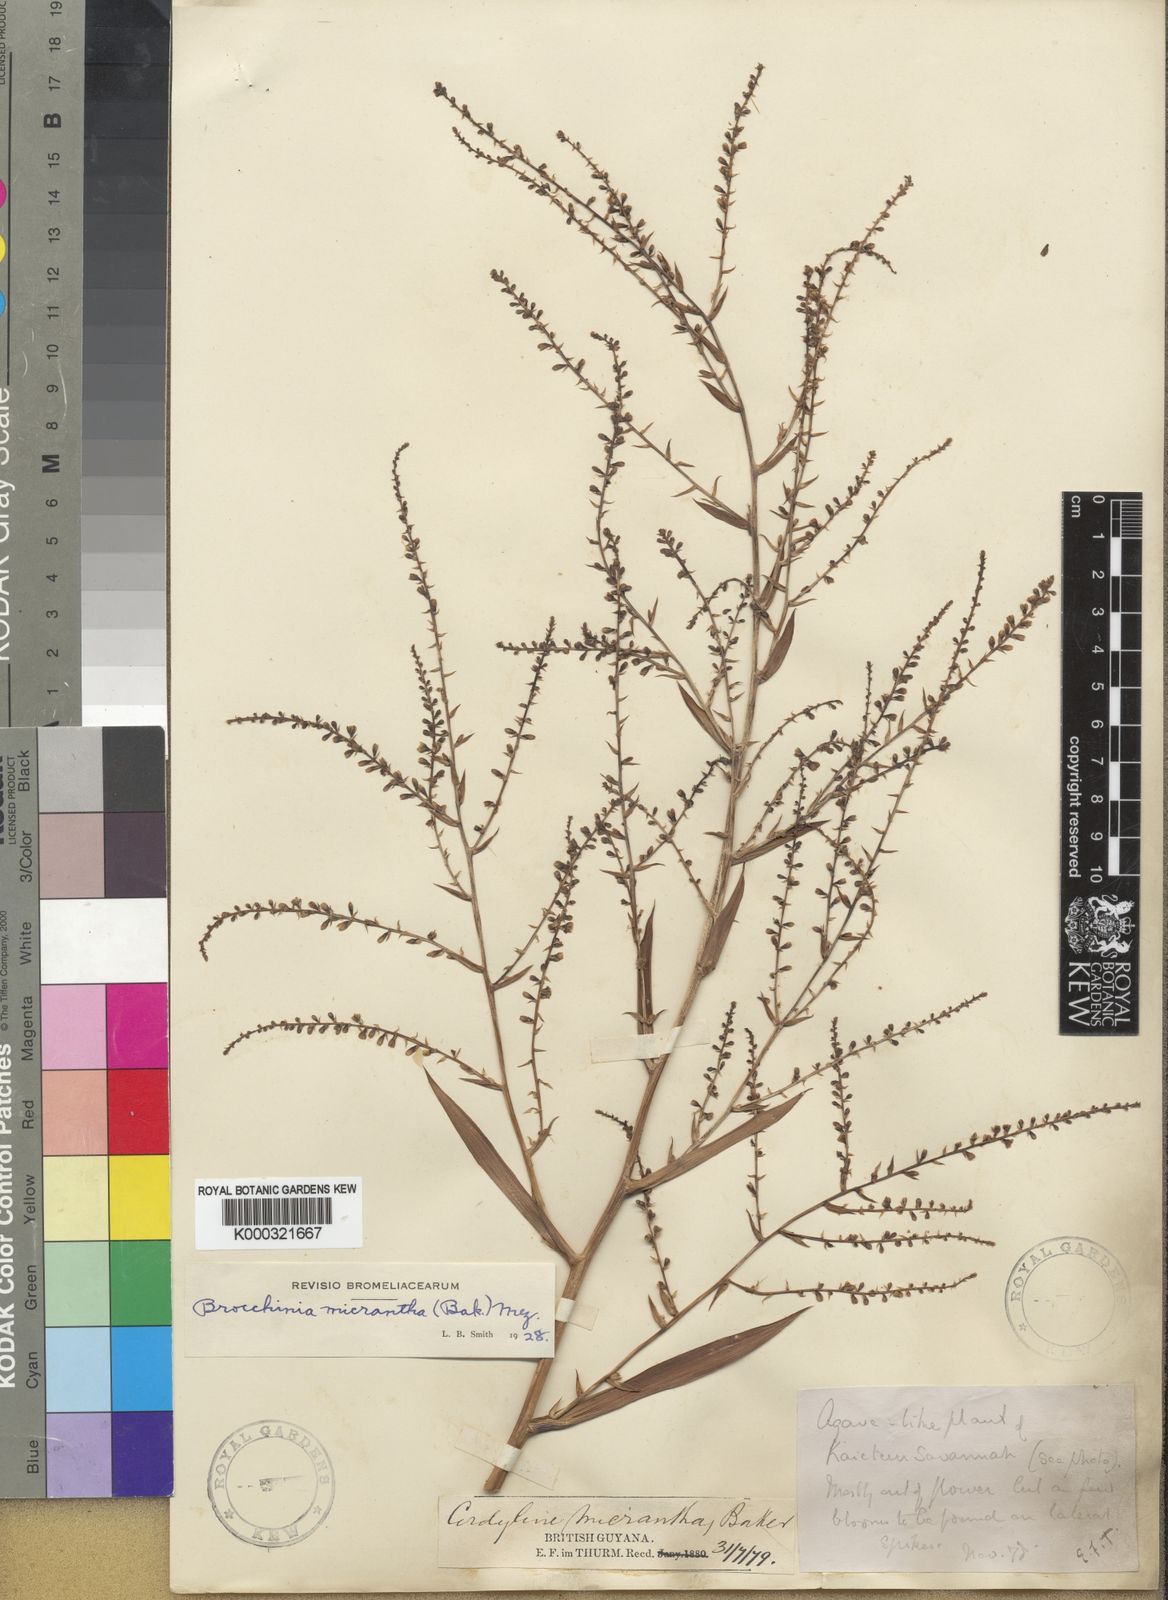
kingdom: Plantae
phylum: Tracheophyta
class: Liliopsida
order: Poales
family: Bromeliaceae
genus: Brocchinia
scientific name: Brocchinia micrantha
